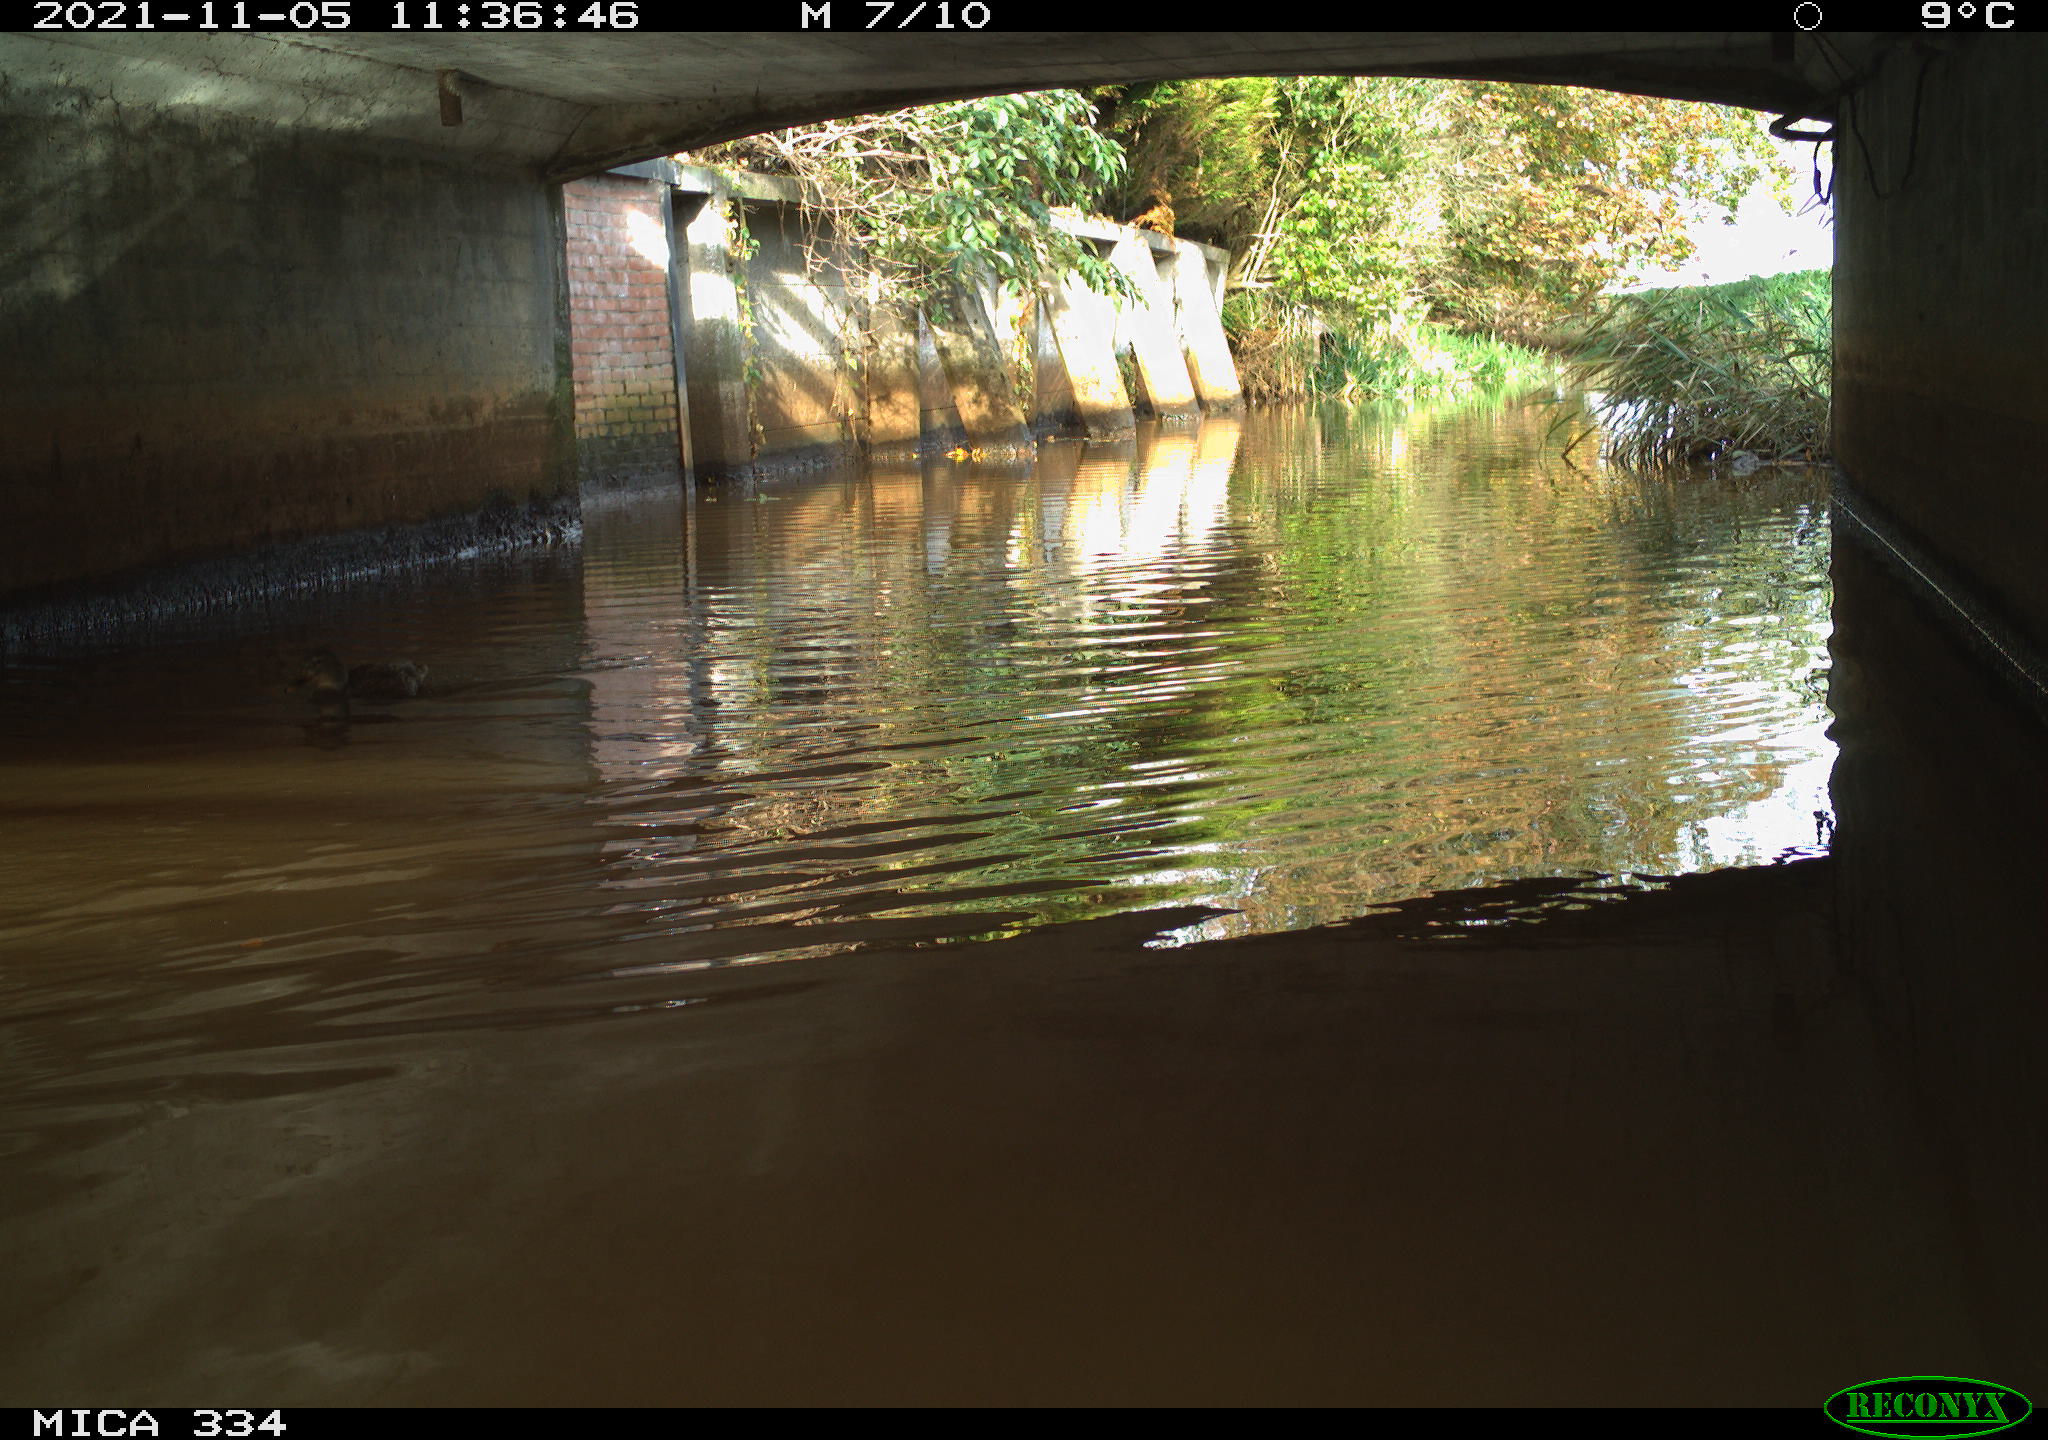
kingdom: Animalia
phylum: Chordata
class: Aves
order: Anseriformes
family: Anatidae
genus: Anas
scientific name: Anas platyrhynchos
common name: Mallard
